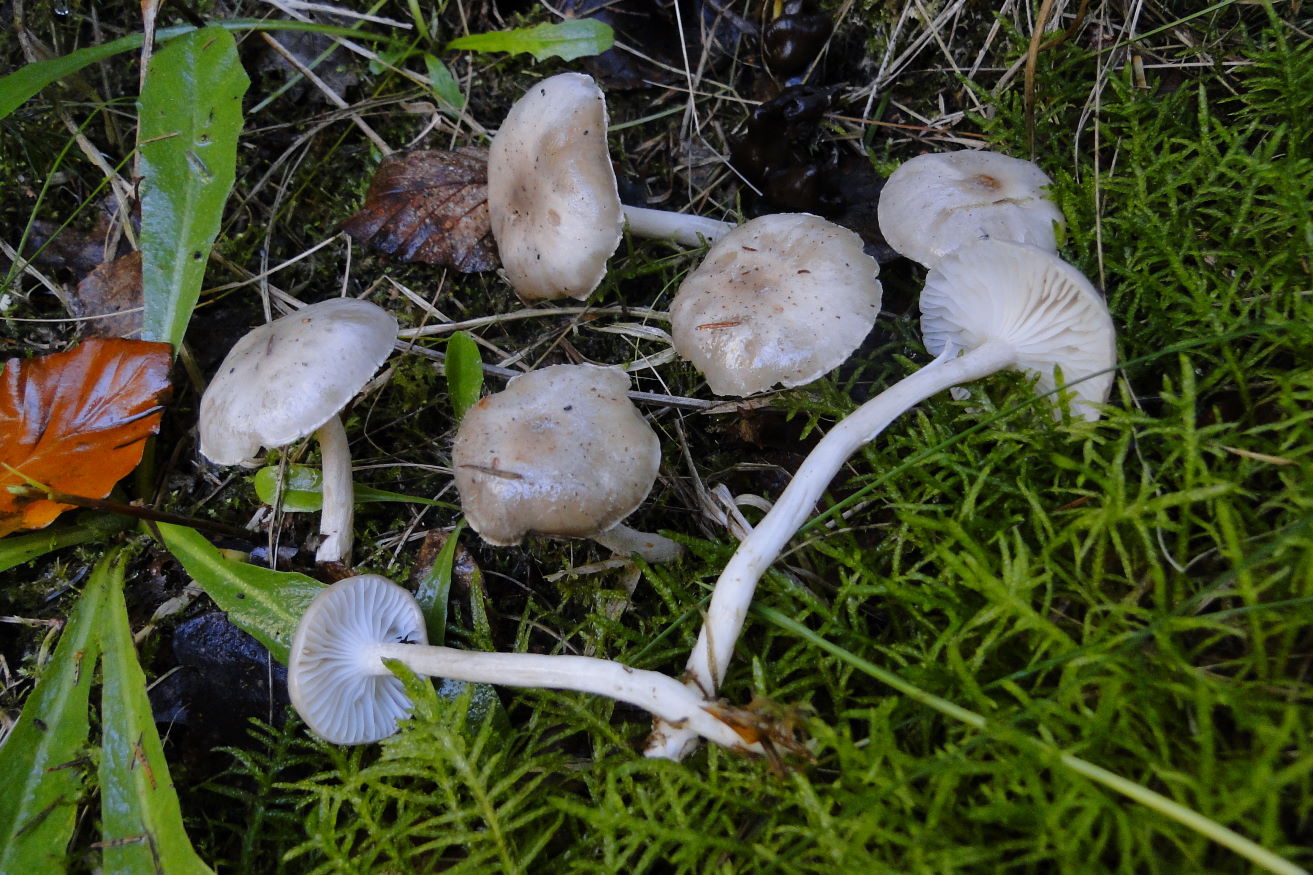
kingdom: Fungi
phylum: Basidiomycota
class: Agaricomycetes
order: Agaricales
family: Hygrophoraceae
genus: Hygrophorus
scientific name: Hygrophorus agathosmus
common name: vellugtende sneglehat
